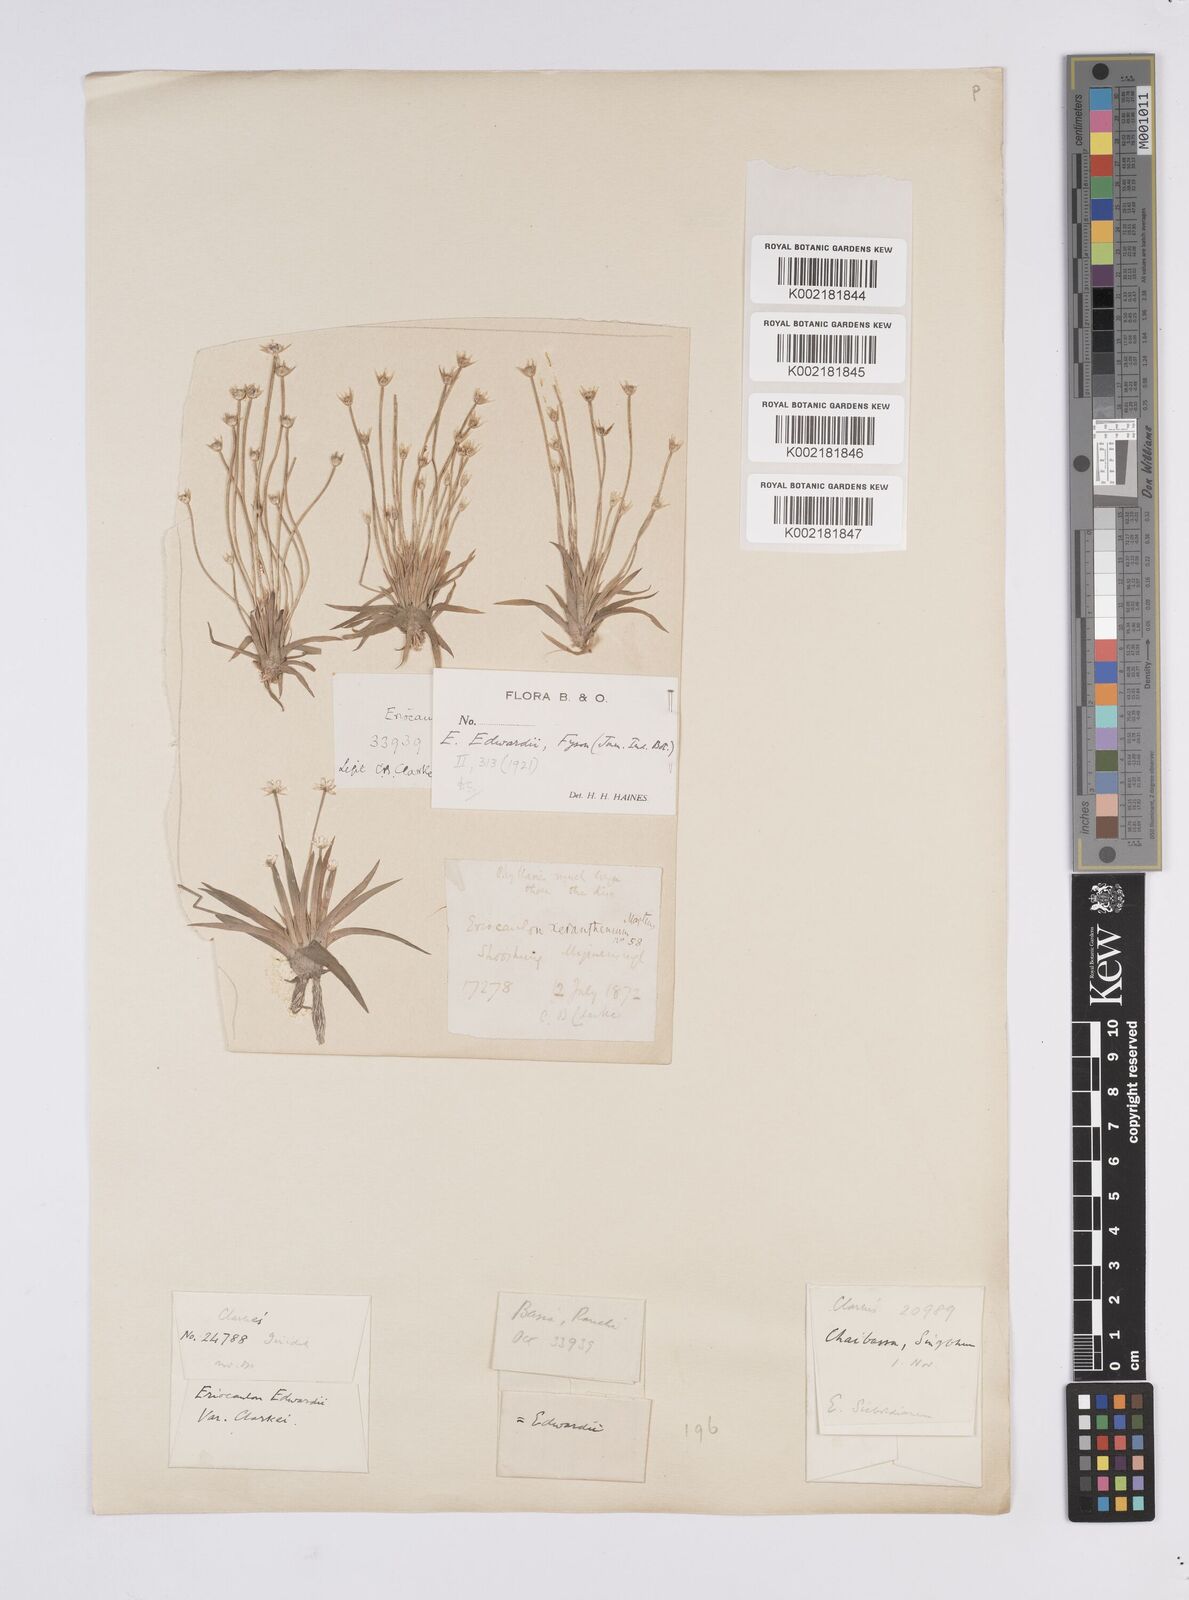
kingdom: Plantae
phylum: Tracheophyta
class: Liliopsida
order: Poales
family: Eriocaulaceae
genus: Eriocaulon
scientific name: Eriocaulon edwardii
